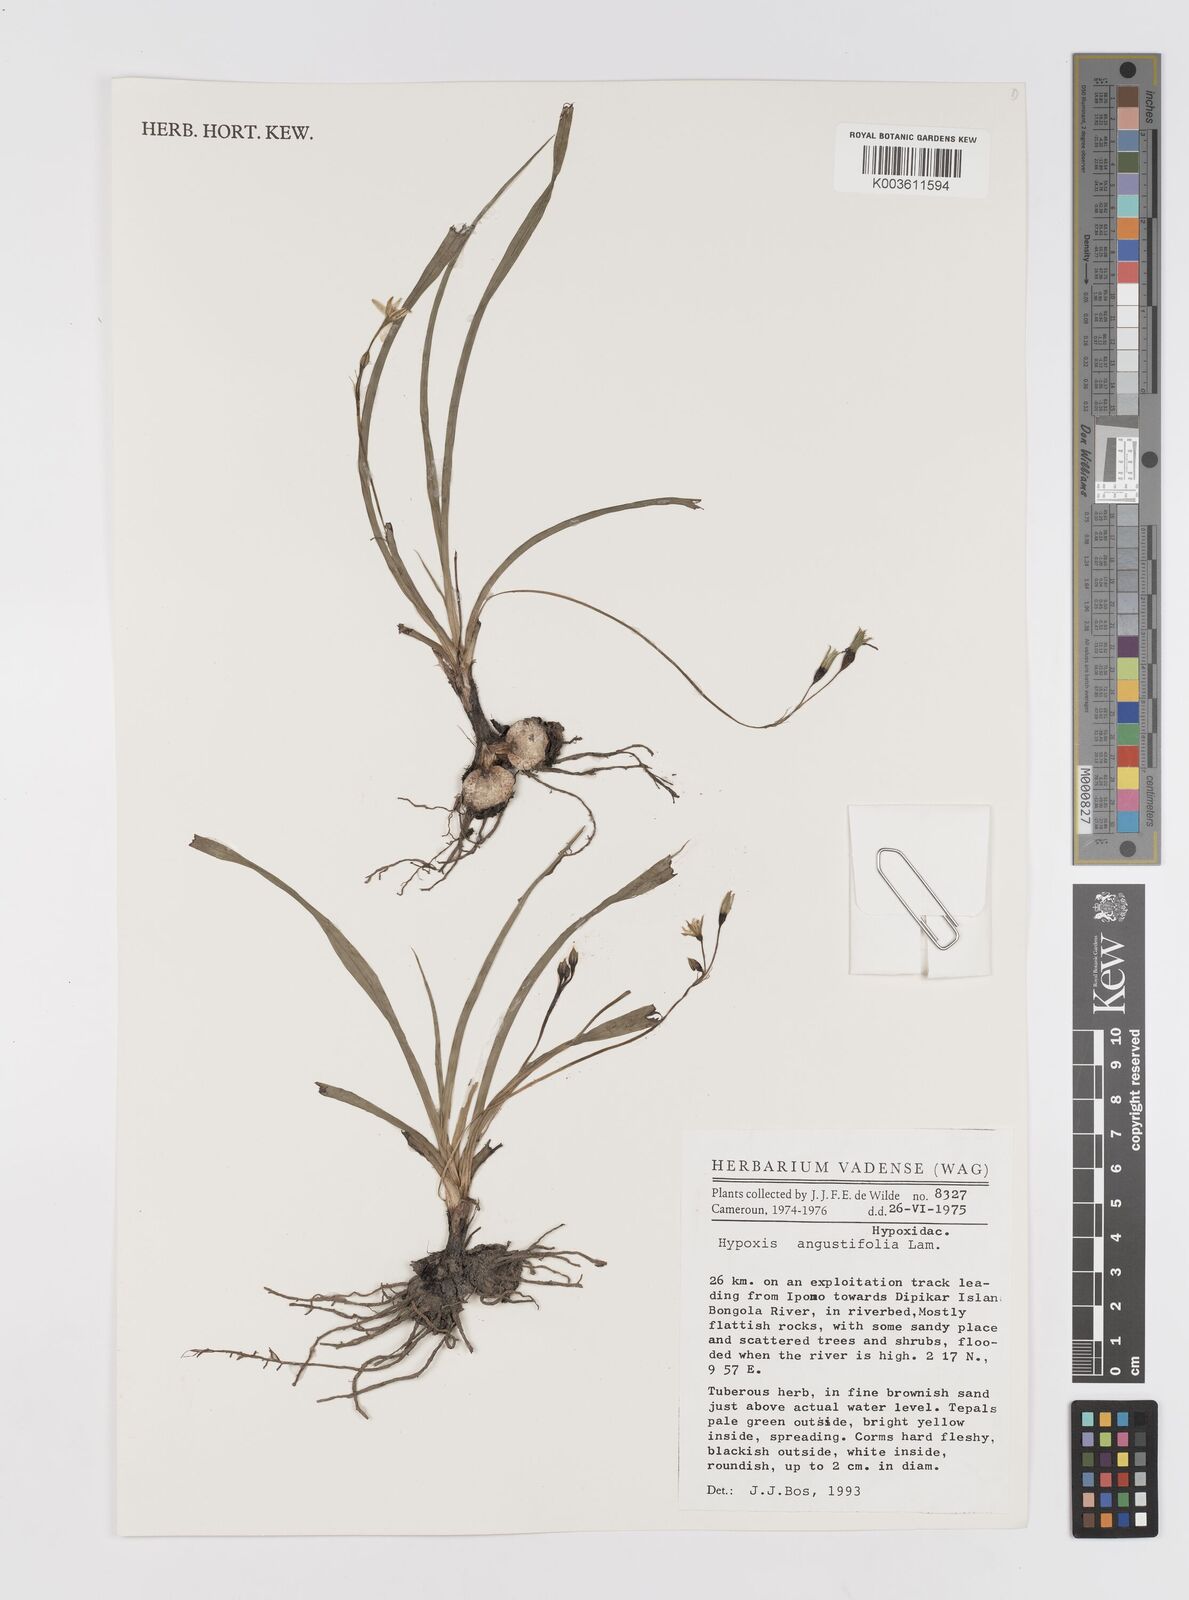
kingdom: Plantae
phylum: Tracheophyta
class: Liliopsida
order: Asparagales
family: Hypoxidaceae
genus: Hypoxis
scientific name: Hypoxis angustifolia
